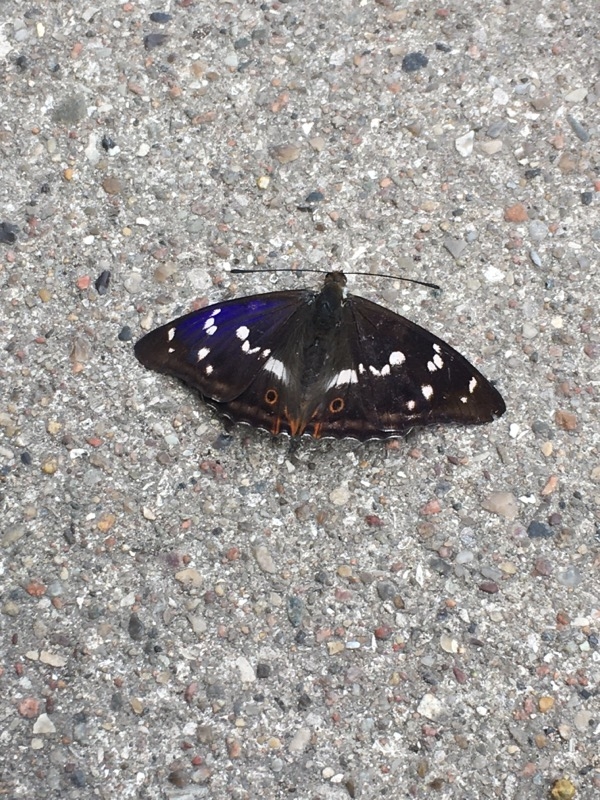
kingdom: Animalia
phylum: Arthropoda
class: Insecta
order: Lepidoptera
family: Nymphalidae
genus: Apatura
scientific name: Apatura iris
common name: Iris
